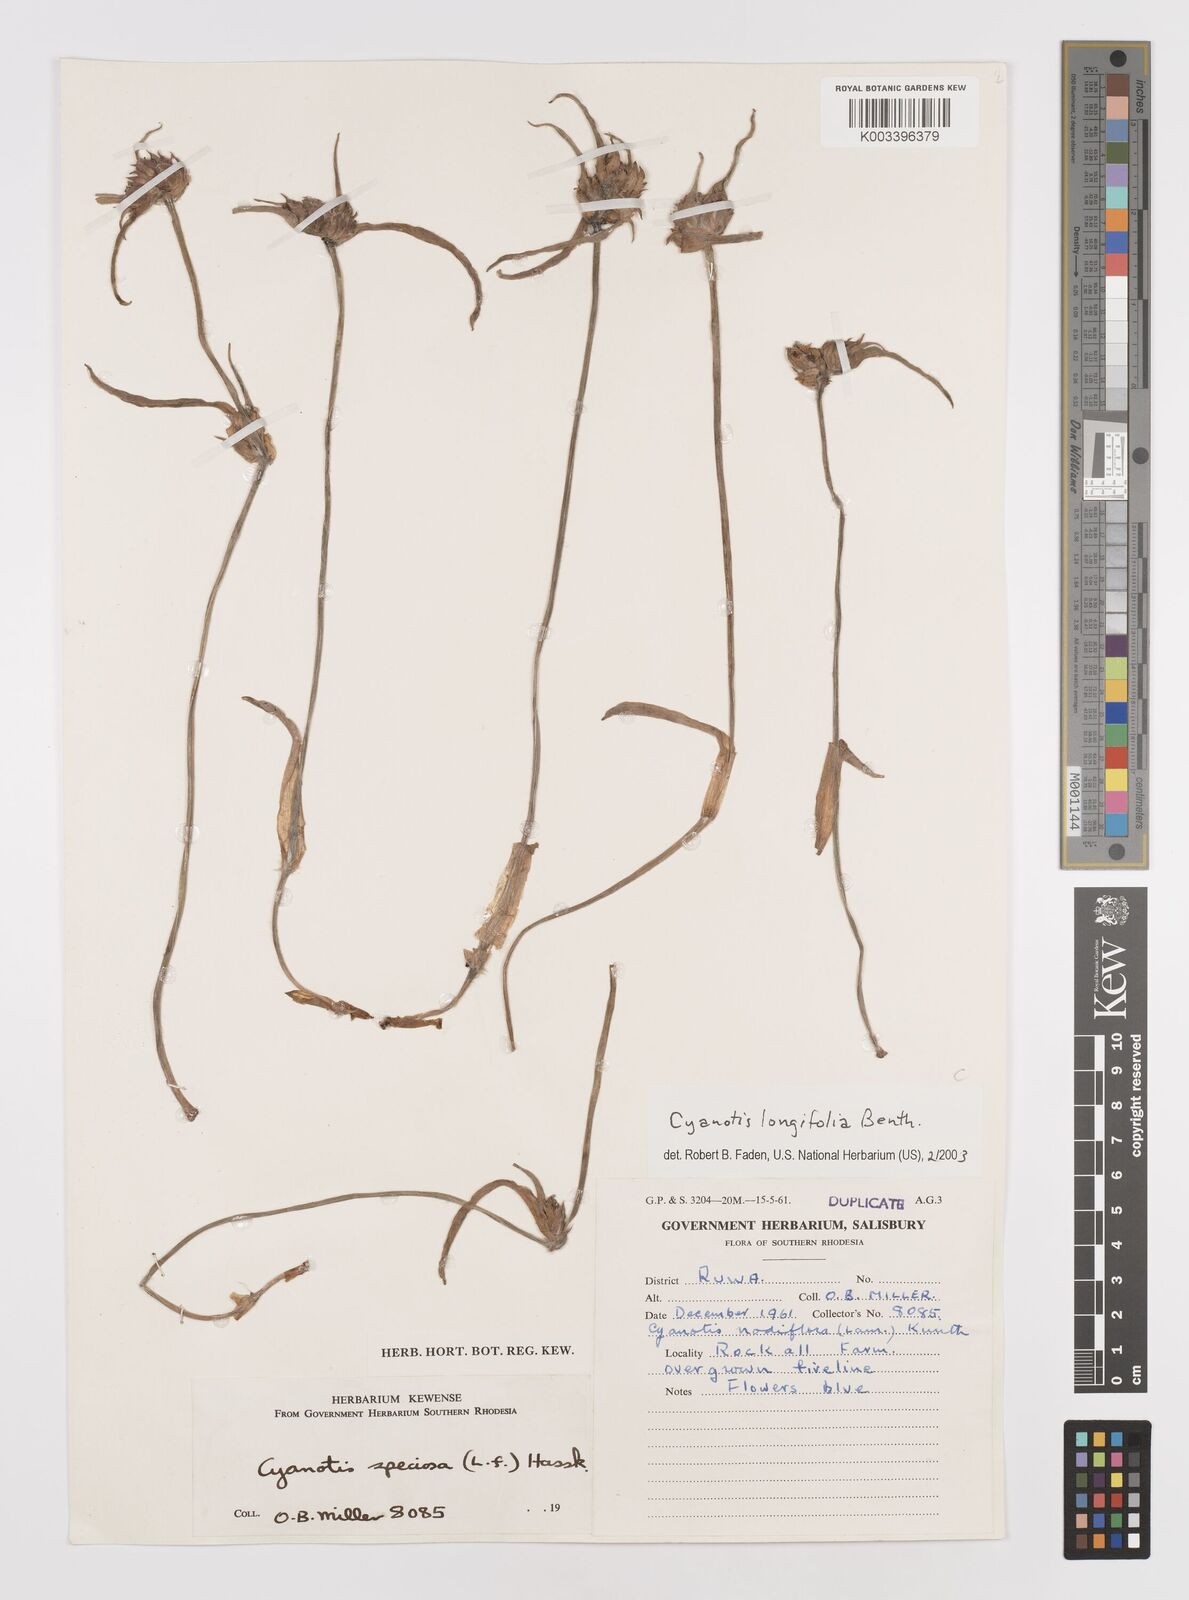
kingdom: Plantae
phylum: Tracheophyta
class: Liliopsida
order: Commelinales
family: Commelinaceae
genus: Cyanotis
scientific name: Cyanotis longifolia
